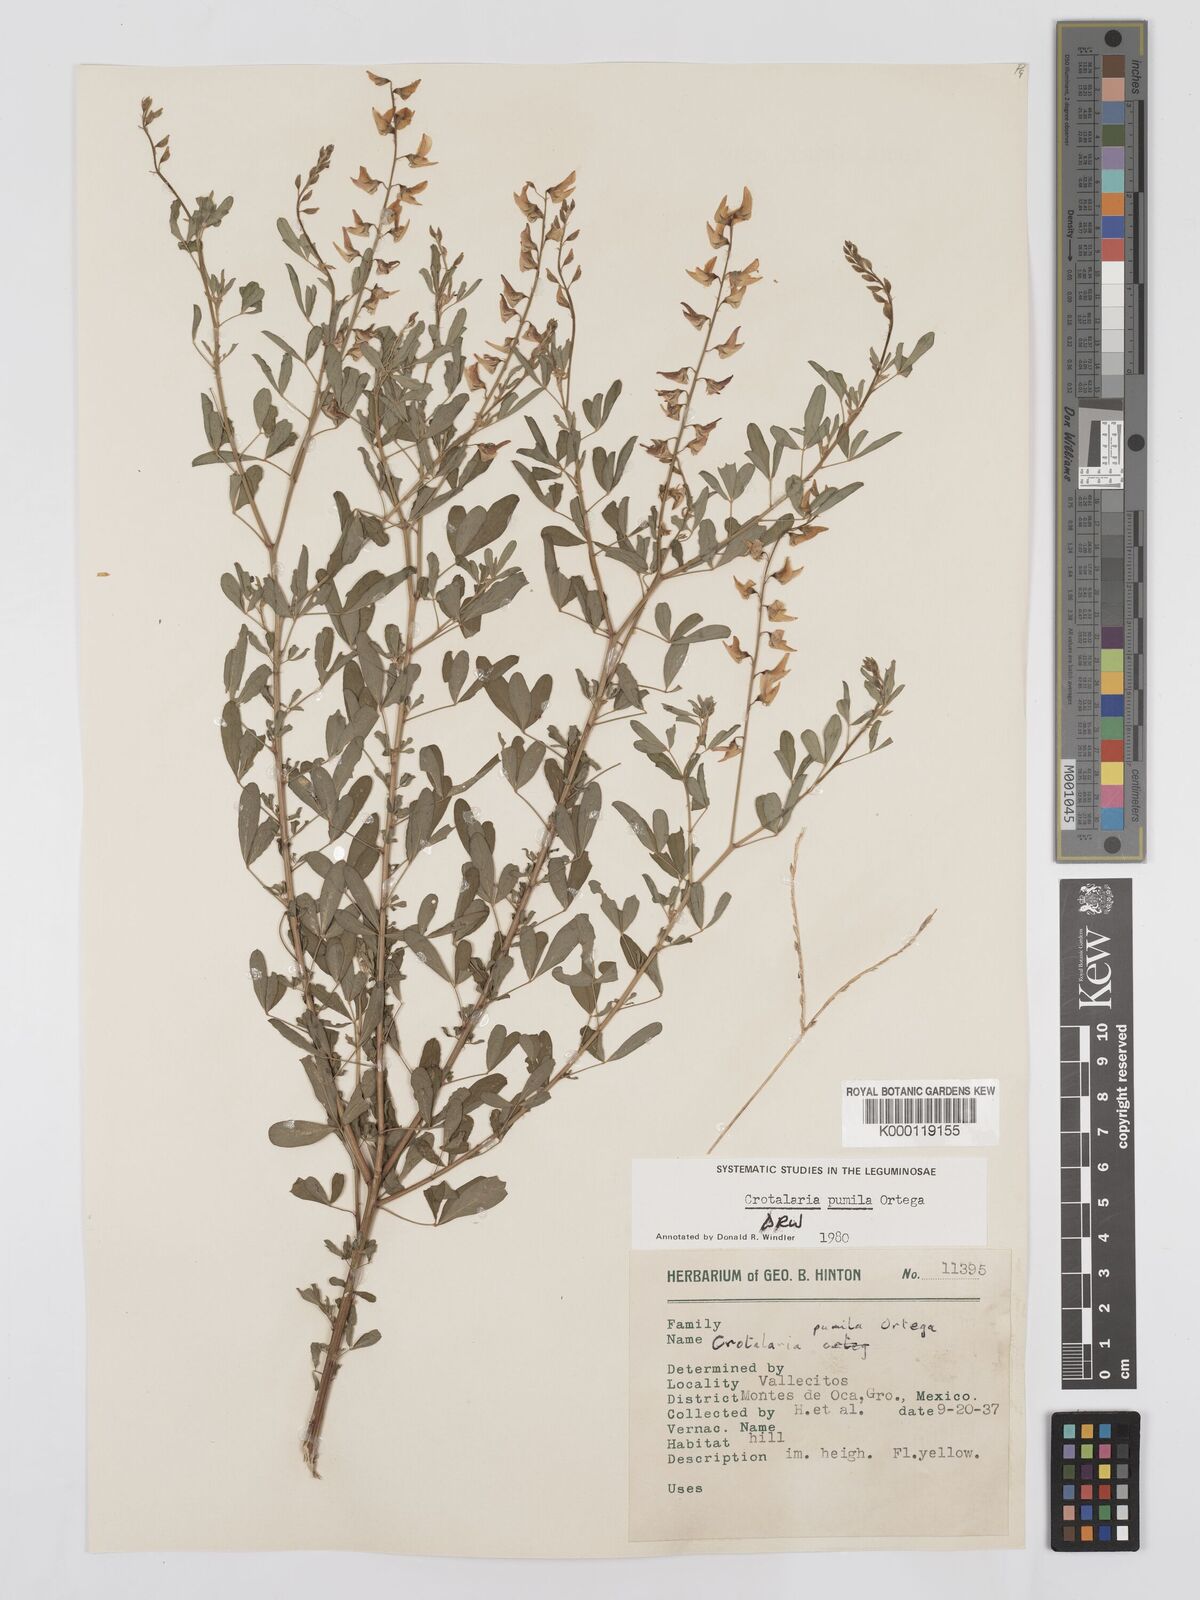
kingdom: Plantae
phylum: Tracheophyta
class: Magnoliopsida
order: Fabales
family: Fabaceae
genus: Crotalaria
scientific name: Crotalaria pumila
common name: Low rattlebox
